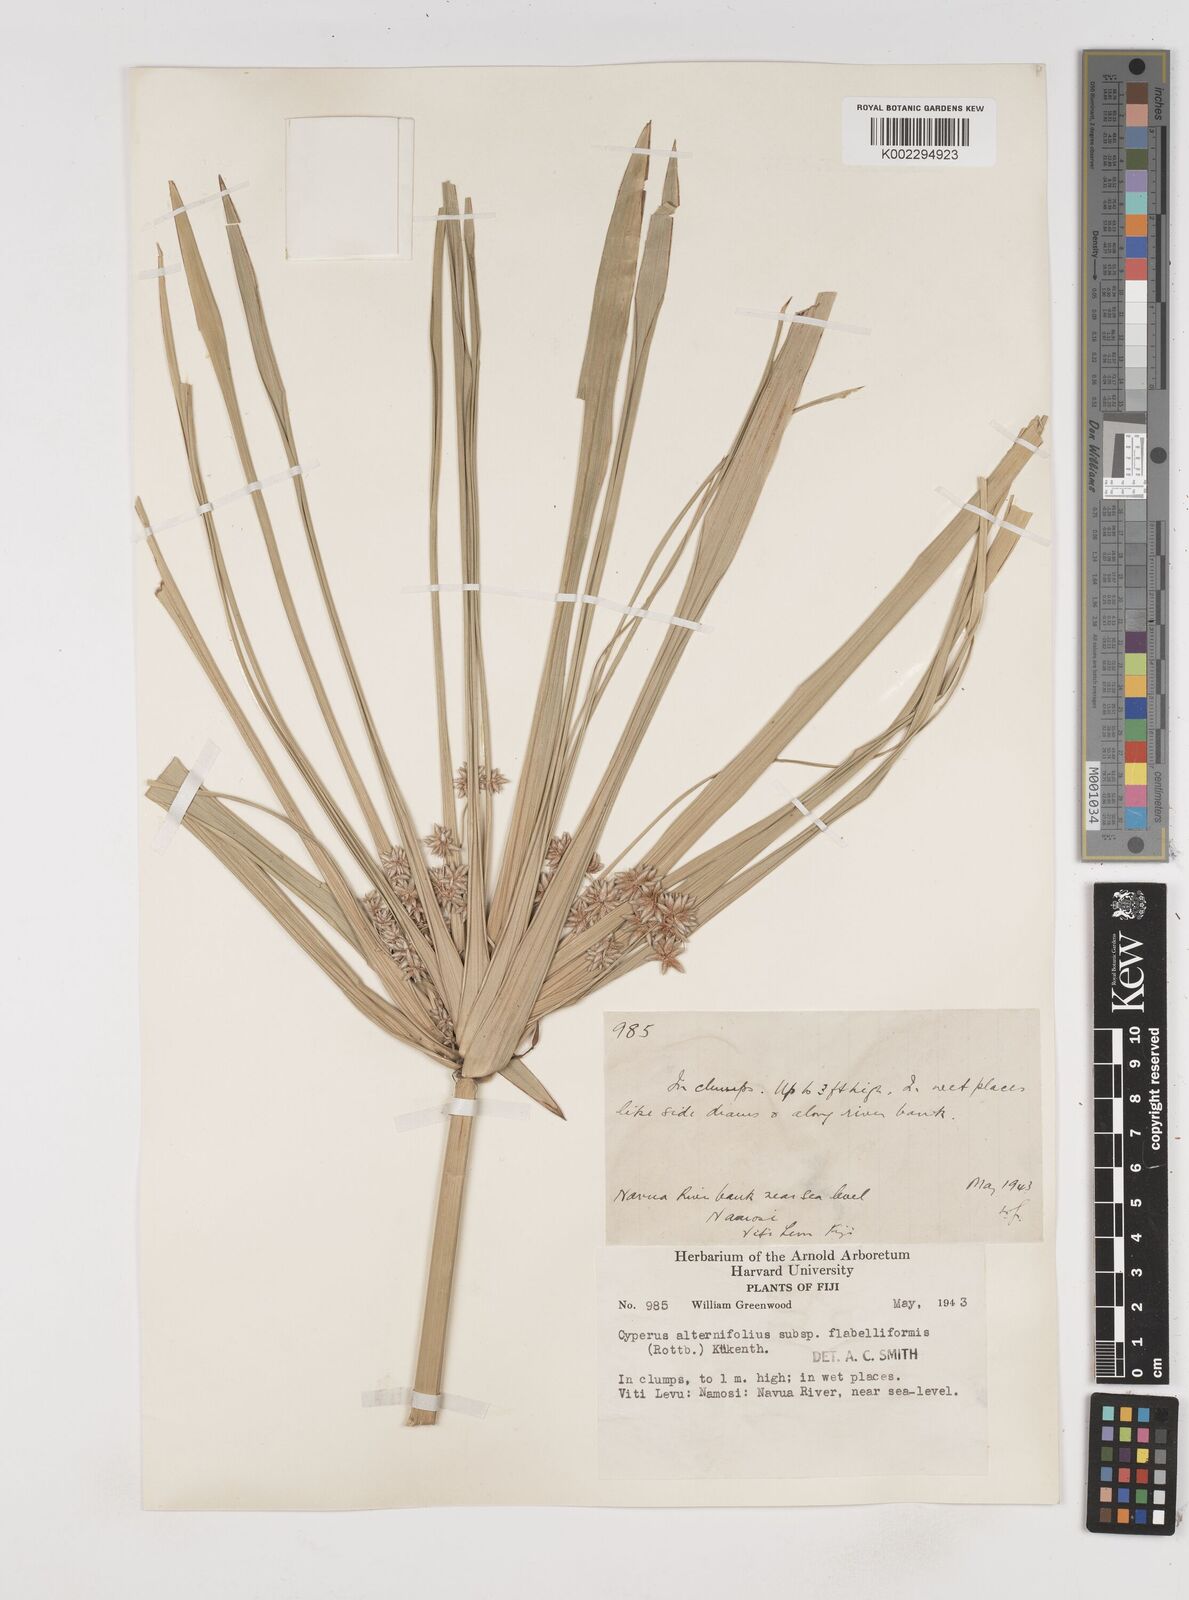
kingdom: Plantae
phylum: Tracheophyta
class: Liliopsida
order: Poales
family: Cyperaceae
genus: Cyperus
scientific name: Cyperus alternifolius
